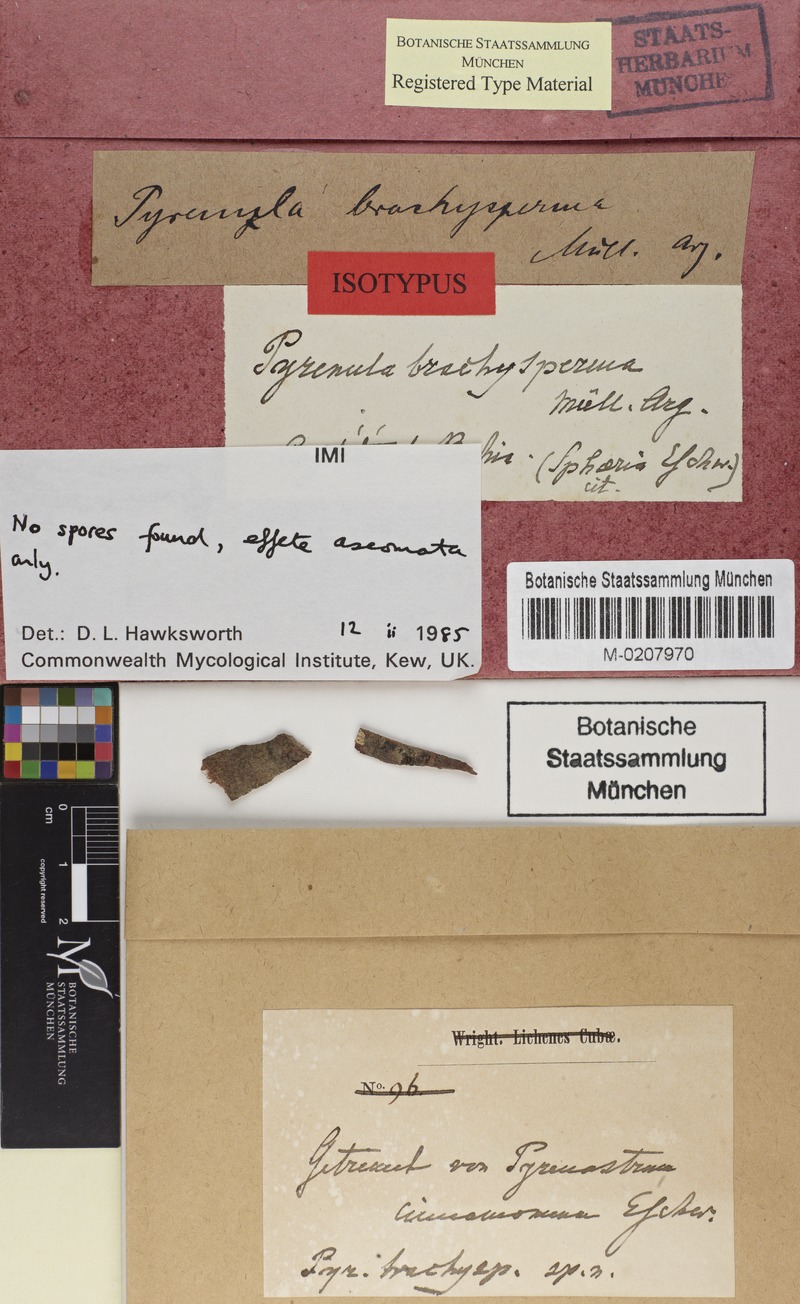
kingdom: Fungi
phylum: Ascomycota
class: Eurotiomycetes
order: Pyrenulales
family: Pyrenulaceae
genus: Pyrenula
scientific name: Pyrenula brachysperma
